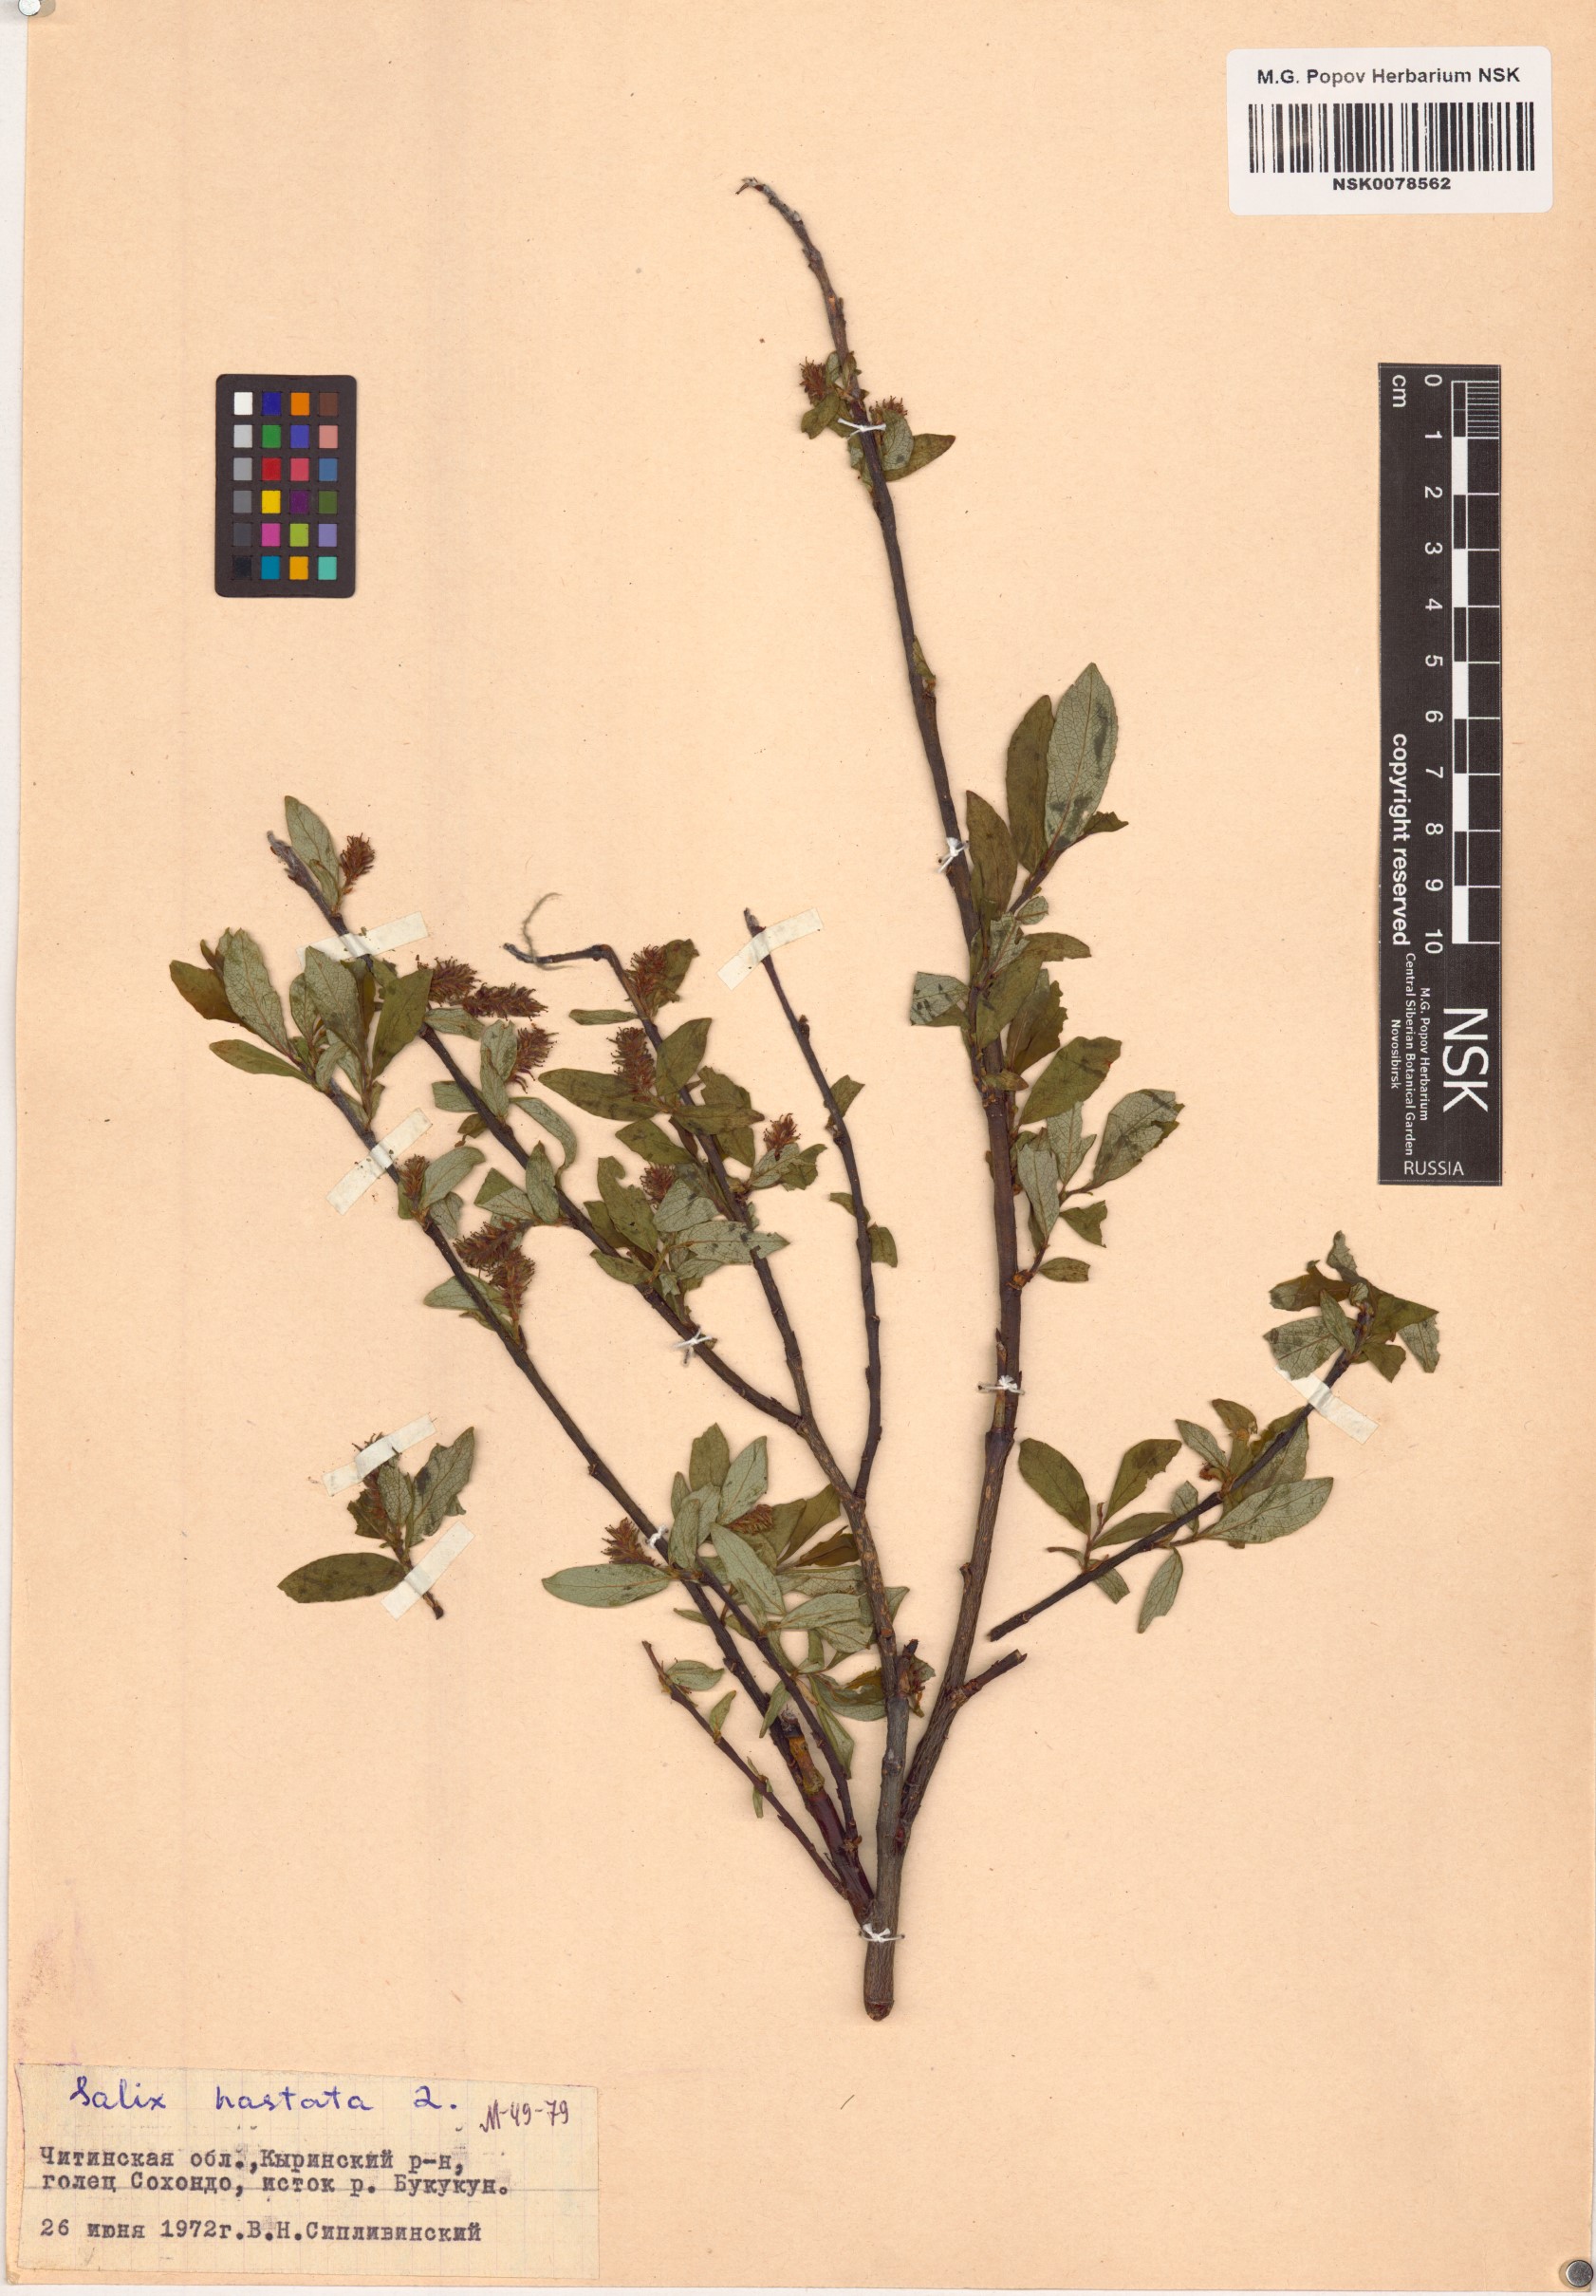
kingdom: Plantae
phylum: Tracheophyta
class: Magnoliopsida
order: Malpighiales
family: Salicaceae
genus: Salix
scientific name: Salix hastata
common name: Halberd willow
